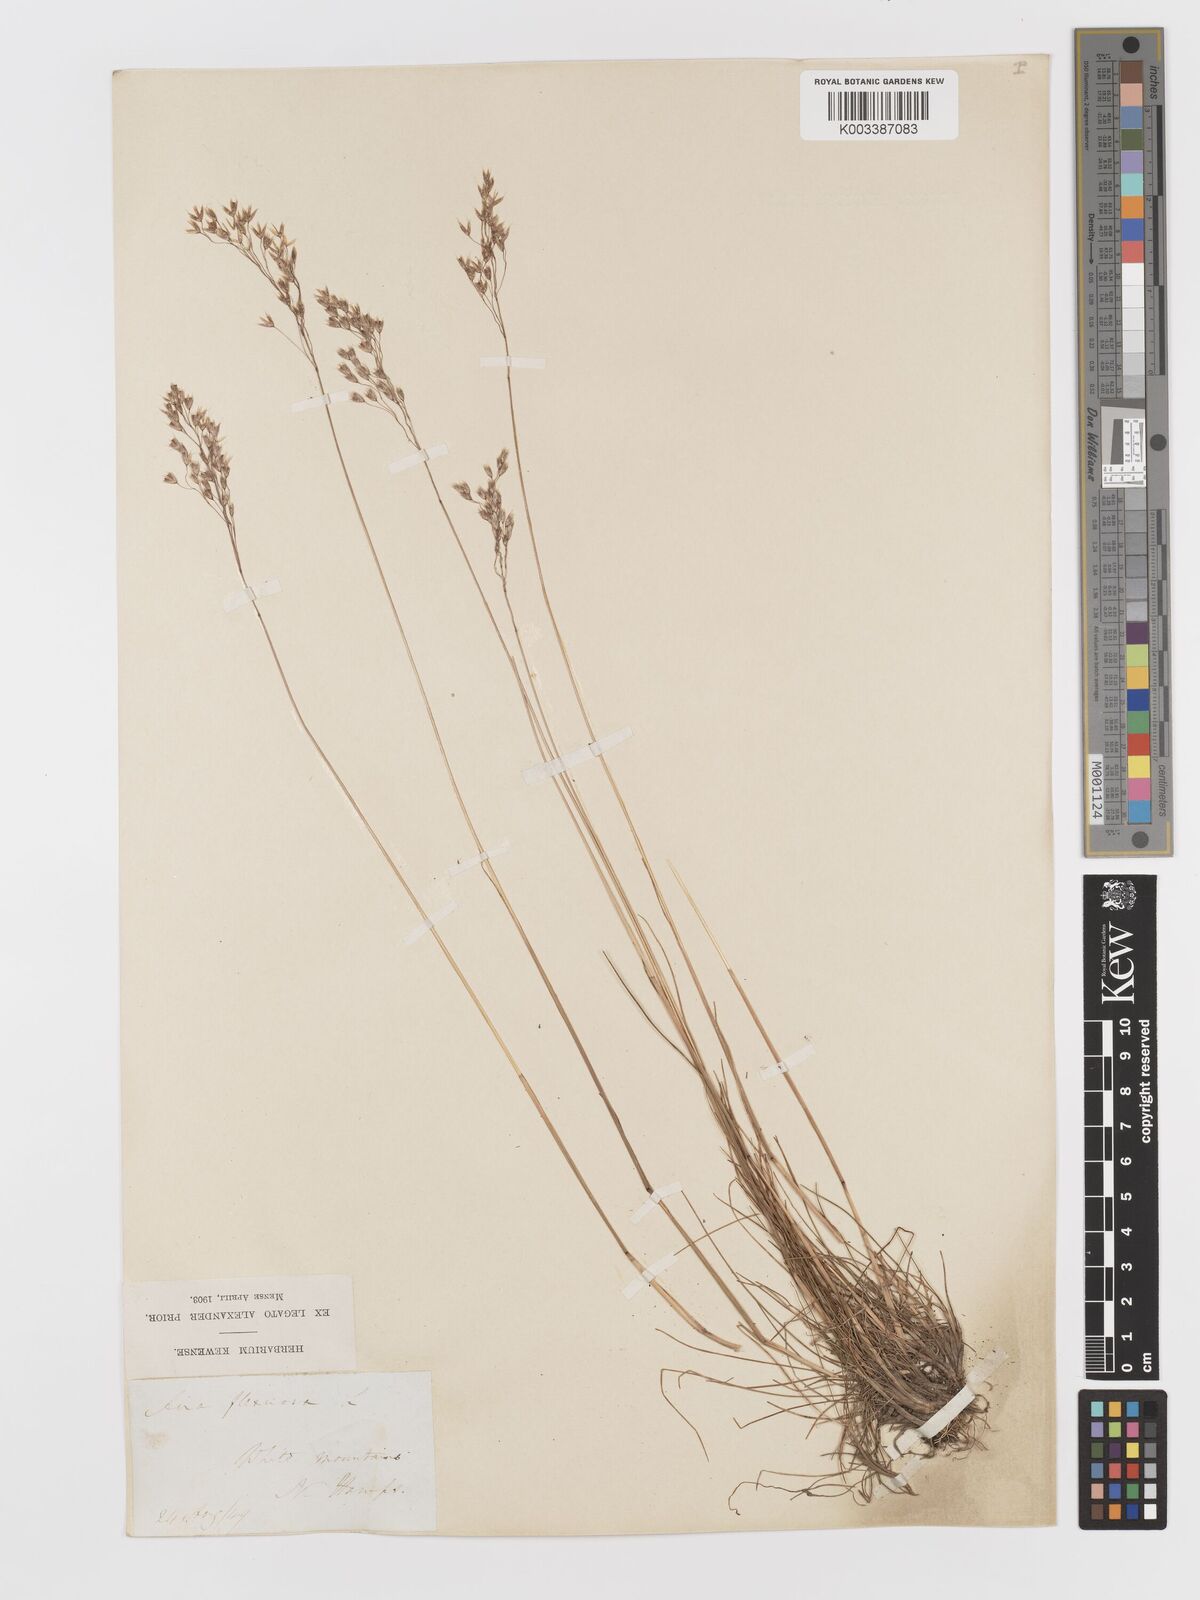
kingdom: Plantae
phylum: Tracheophyta
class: Liliopsida
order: Poales
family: Poaceae
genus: Avenella
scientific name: Avenella flexuosa
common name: Wavy hairgrass
